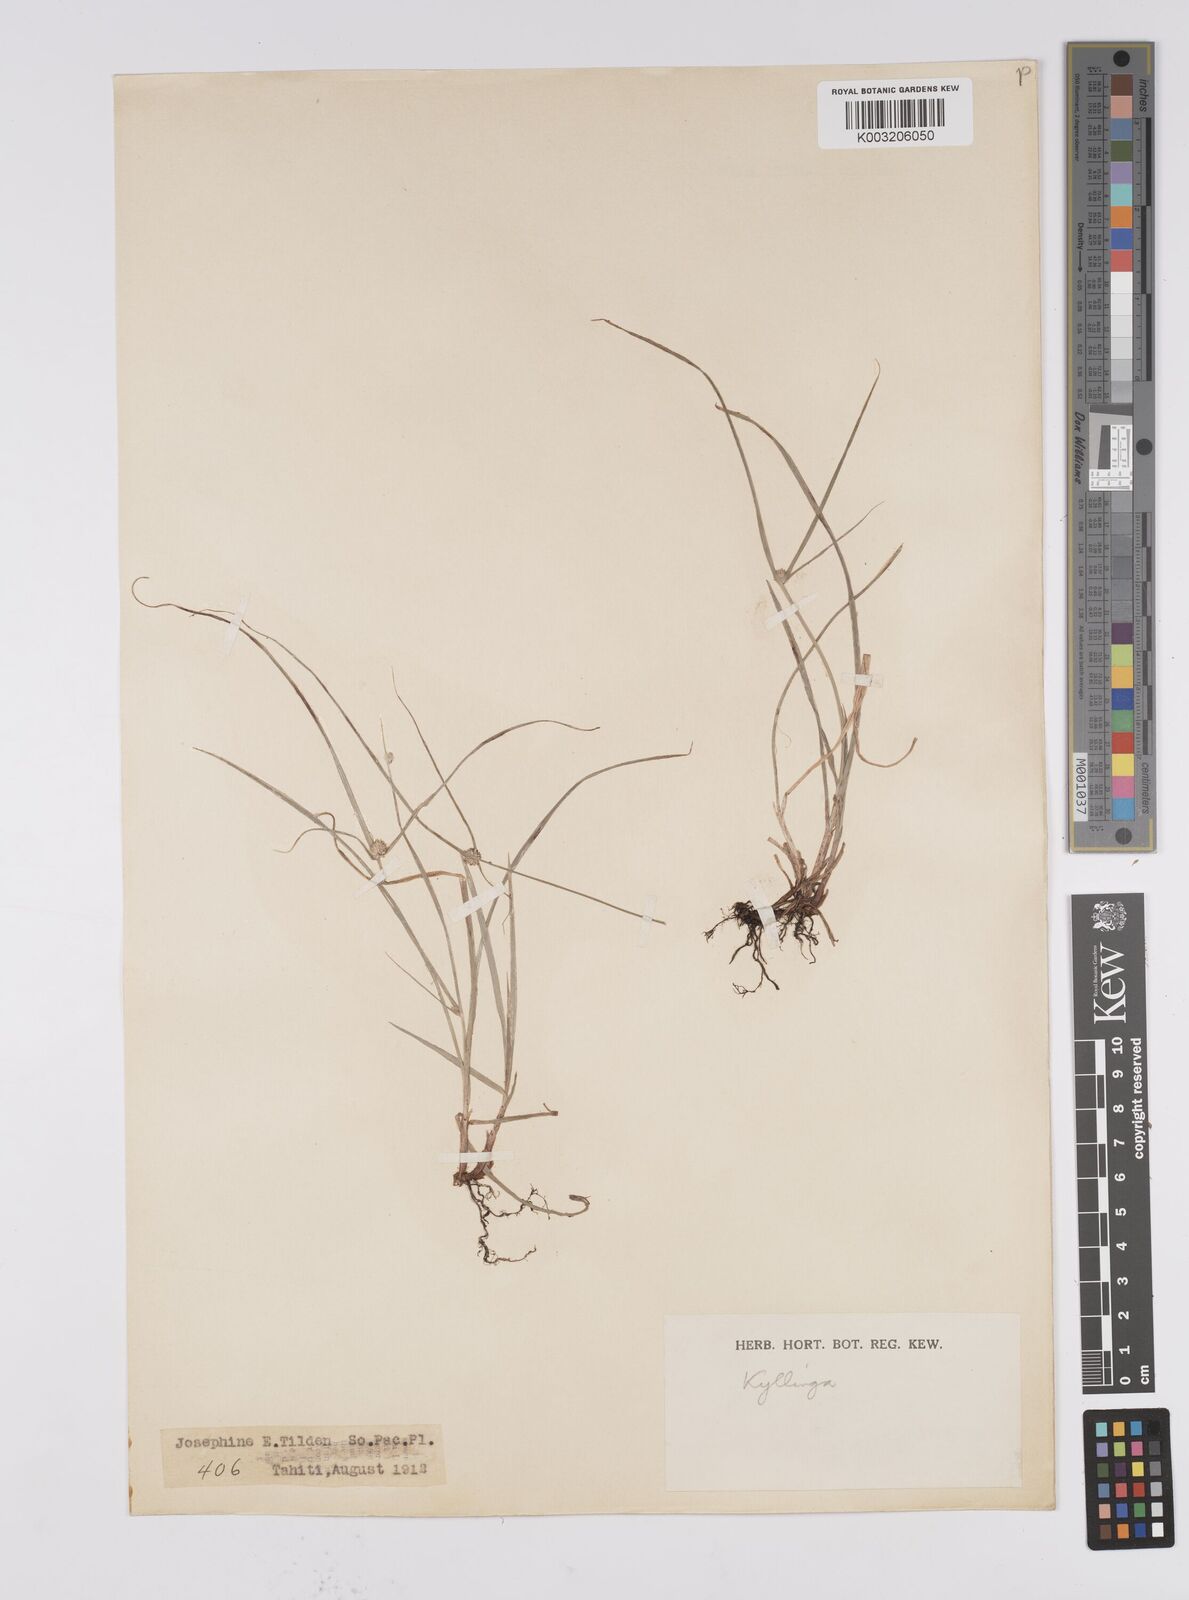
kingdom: Plantae
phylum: Tracheophyta
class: Liliopsida
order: Poales
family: Cyperaceae
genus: Cyperus
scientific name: Cyperus brevifolius
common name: Globe kyllinga
